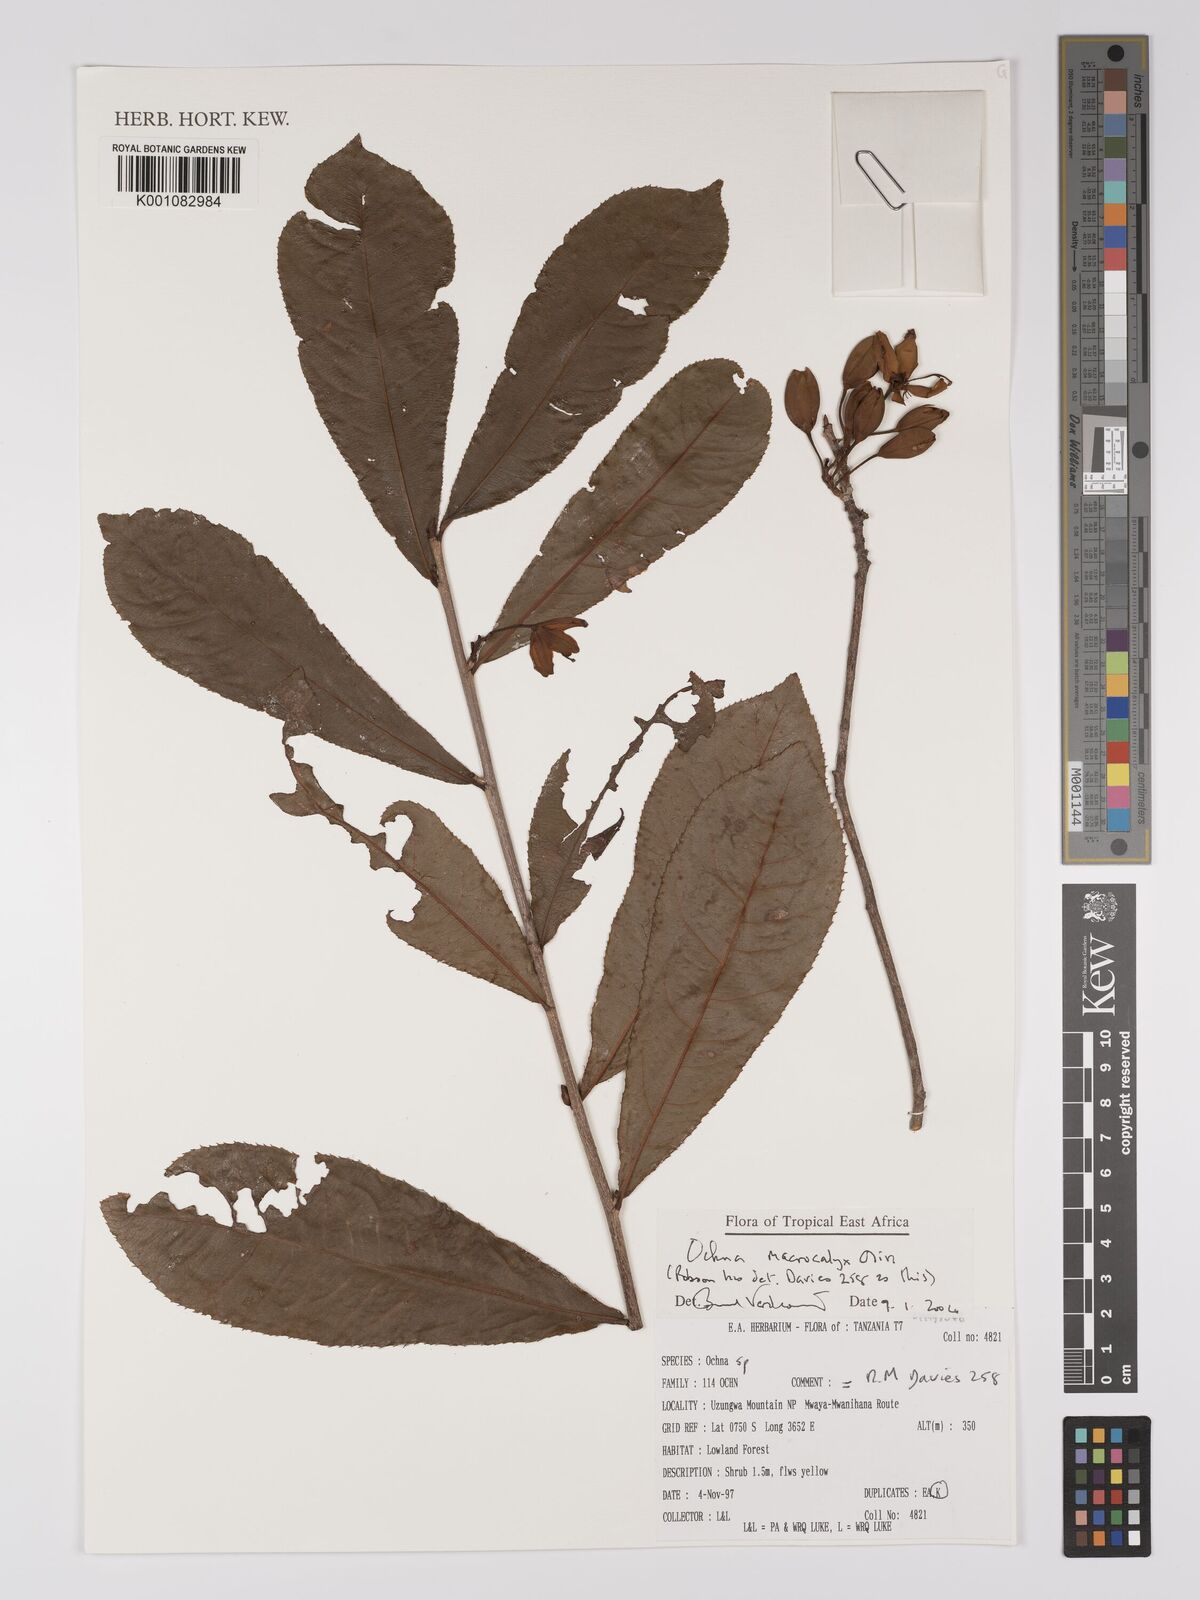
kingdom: Plantae
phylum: Tracheophyta
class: Magnoliopsida
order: Malpighiales
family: Ochnaceae
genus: Ochna
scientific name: Ochna macrocalyx
